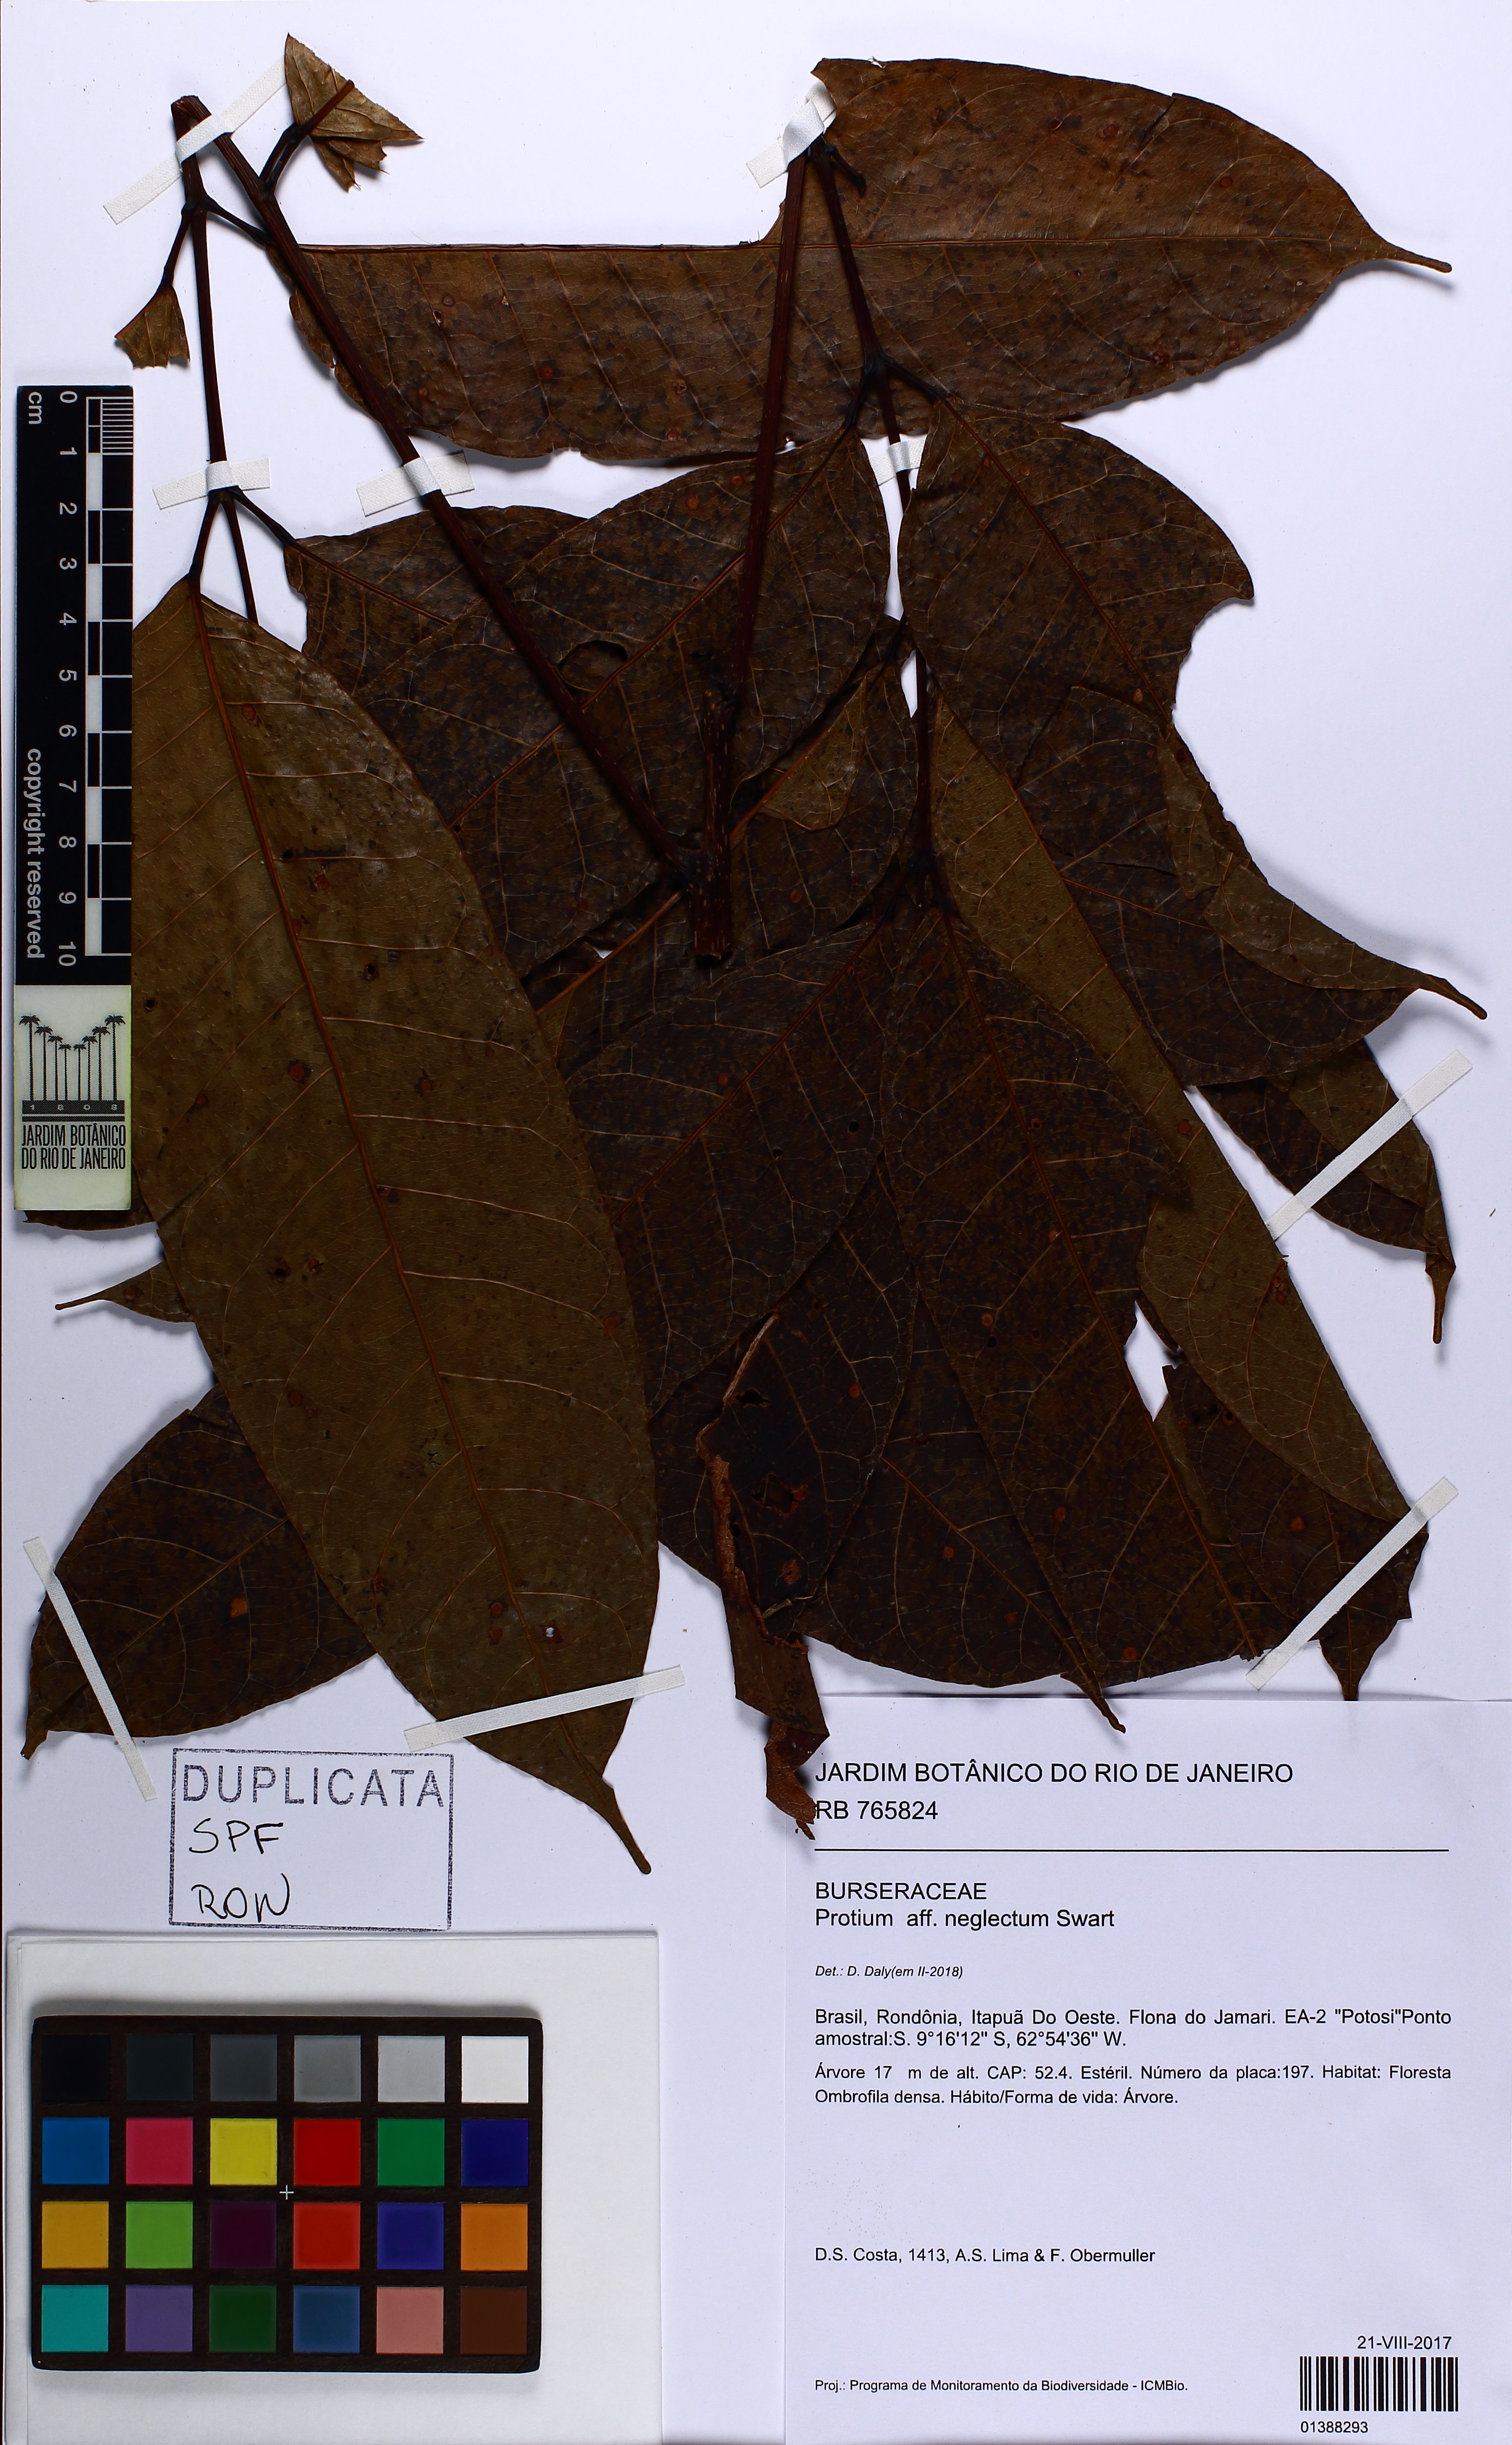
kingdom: Plantae
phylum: Tracheophyta
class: Magnoliopsida
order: Sapindales
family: Burseraceae
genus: Protium
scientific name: Protium tenuifolium
